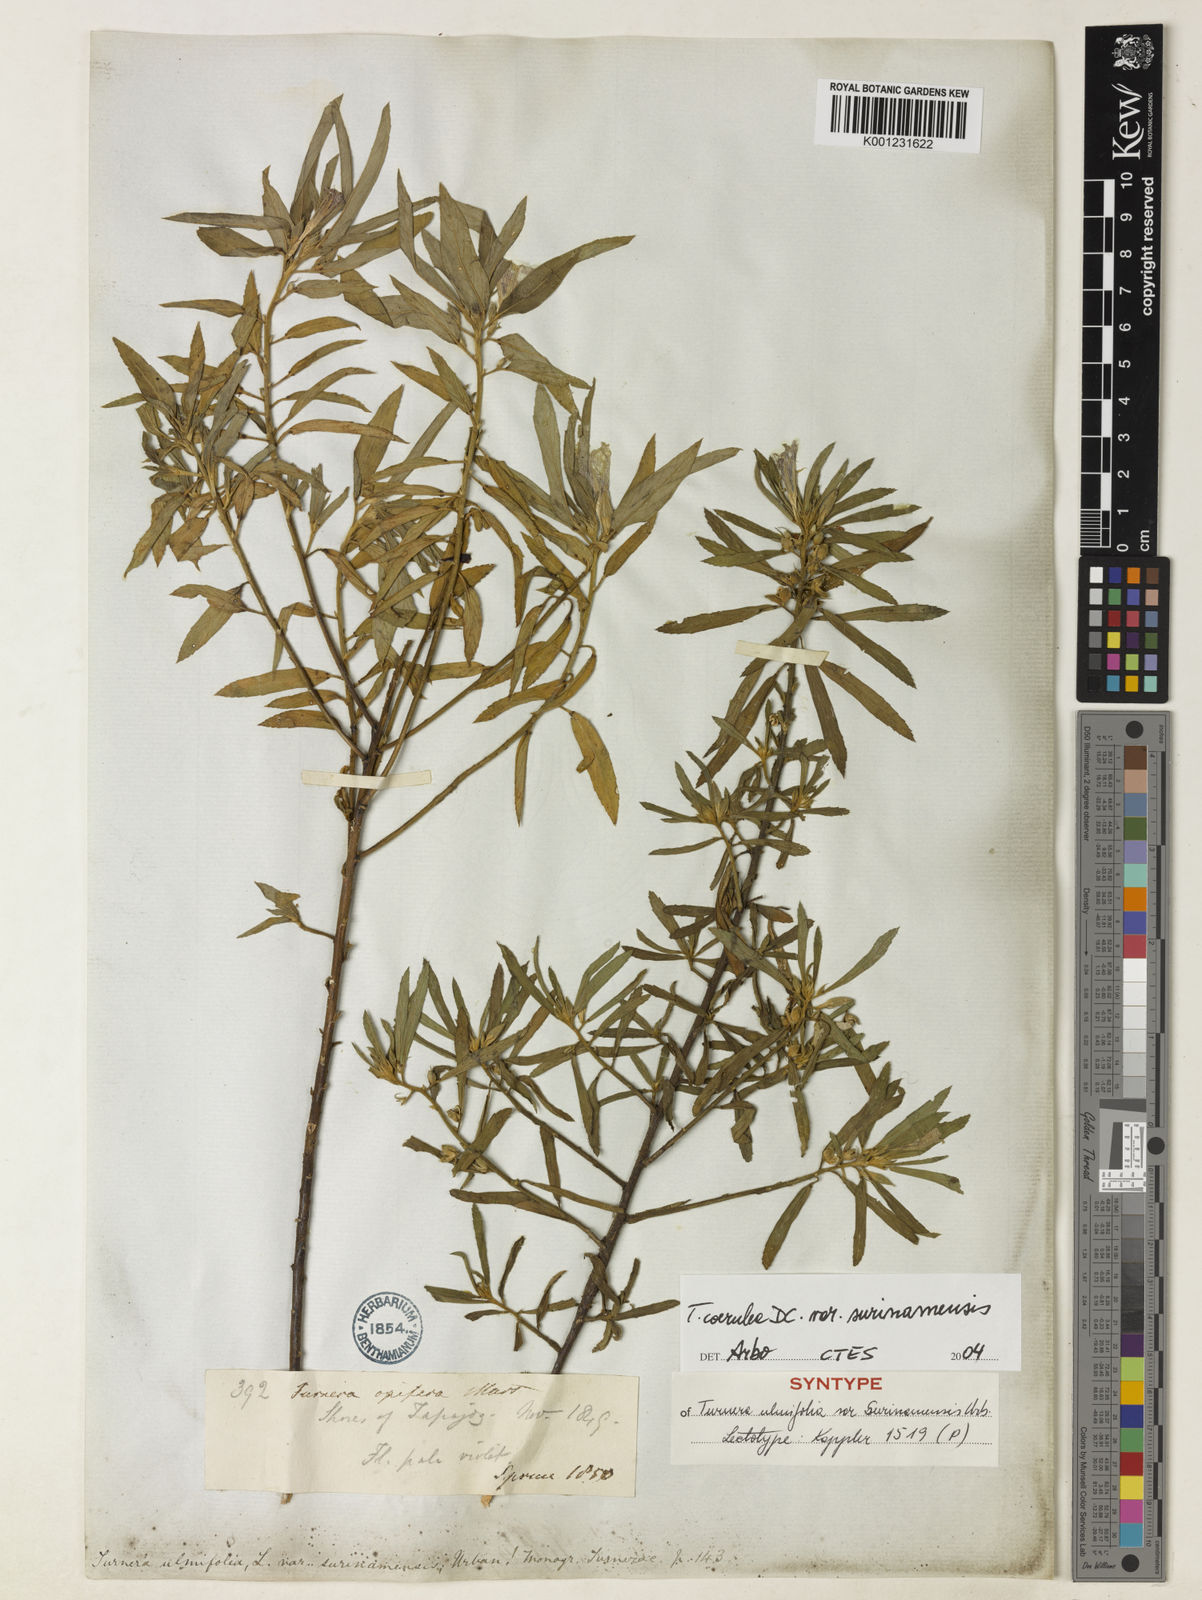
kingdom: Plantae
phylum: Tracheophyta
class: Magnoliopsida
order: Malpighiales
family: Turneraceae
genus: Turnera
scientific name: Turnera coerulea
